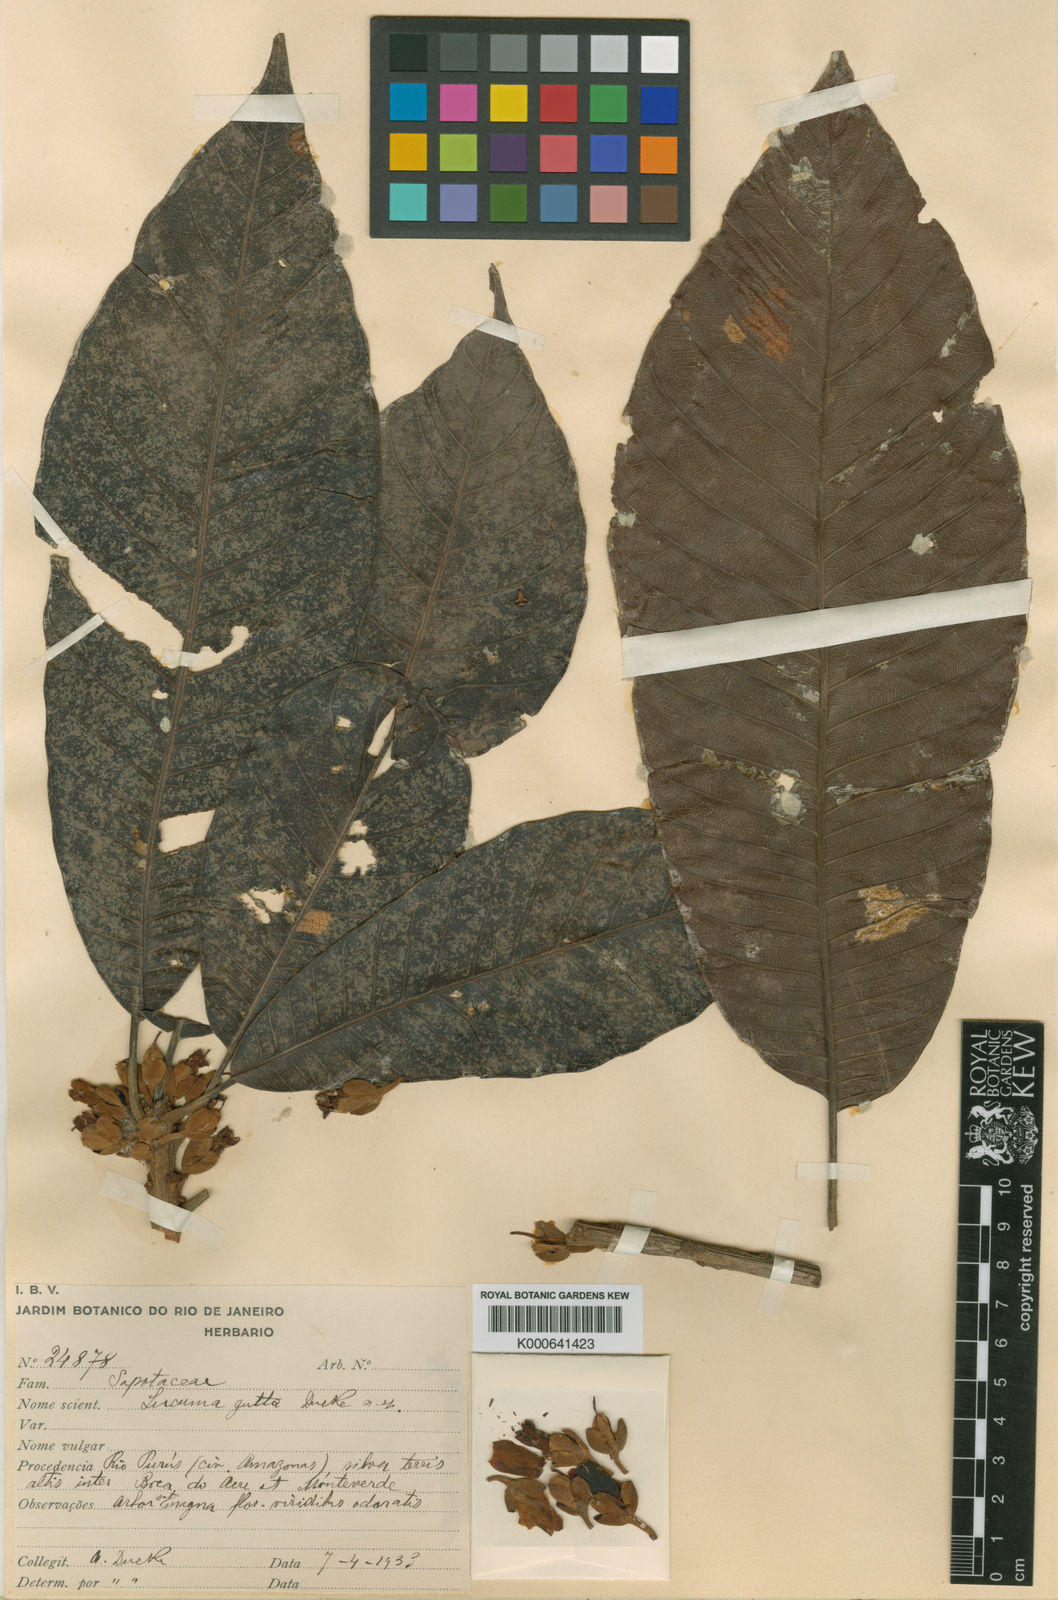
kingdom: Plantae
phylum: Tracheophyta
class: Magnoliopsida
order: Ericales
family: Sapotaceae
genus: Pouteria
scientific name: Pouteria guianensis
